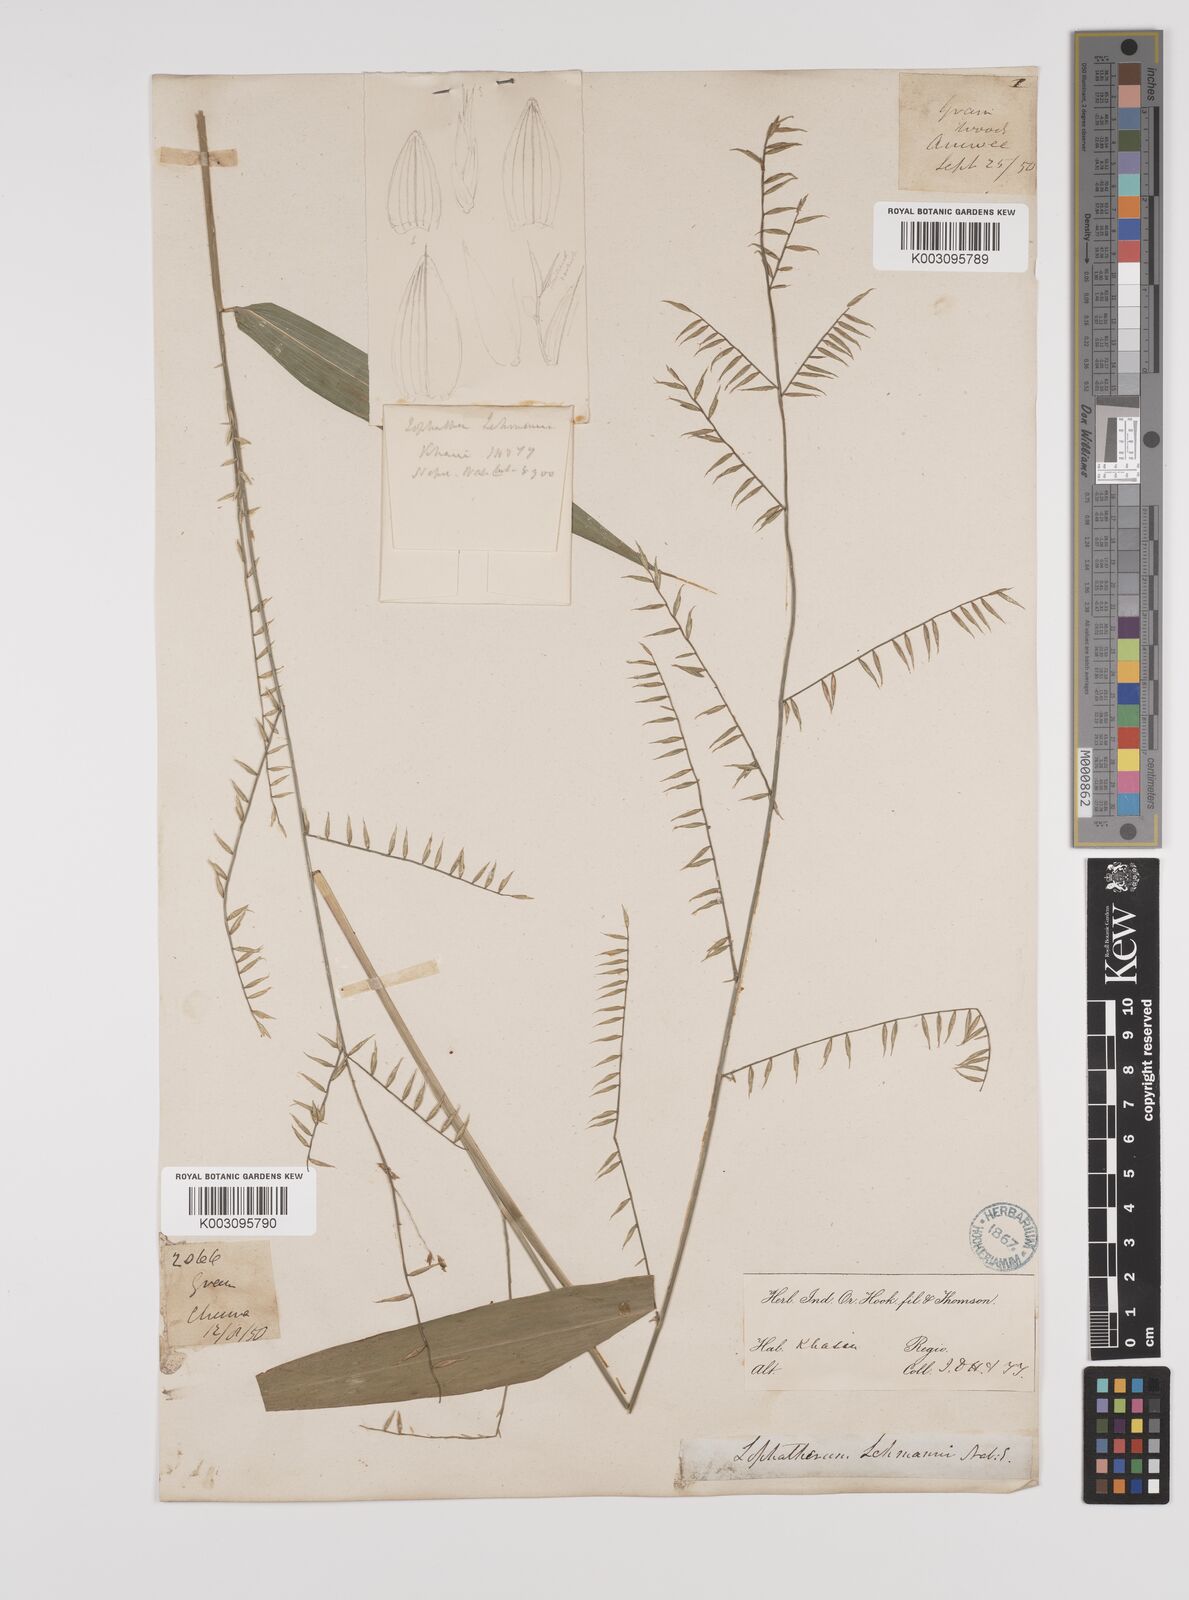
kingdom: Plantae
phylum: Tracheophyta
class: Liliopsida
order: Poales
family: Poaceae
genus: Lophatherum
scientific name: Lophatherum gracile
